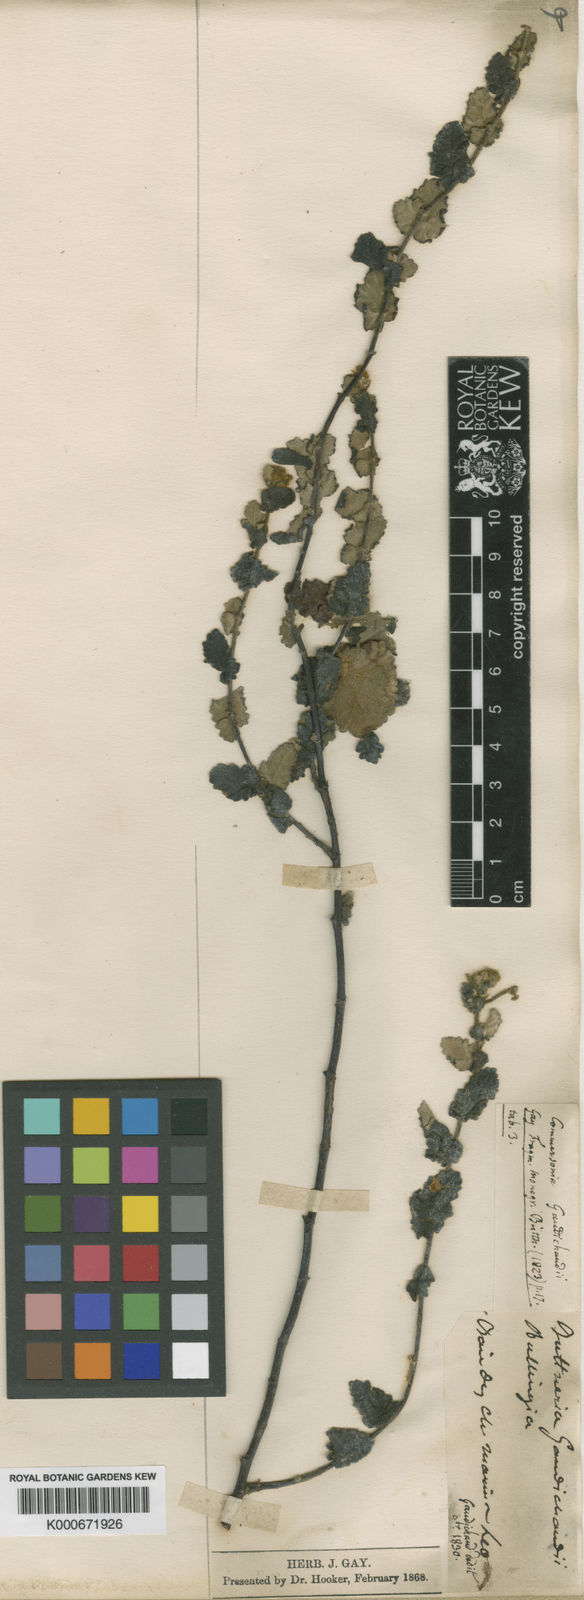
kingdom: Plantae
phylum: Tracheophyta
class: Magnoliopsida
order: Malvales
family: Malvaceae
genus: Androcalva
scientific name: Androcalva gaudichaudii
